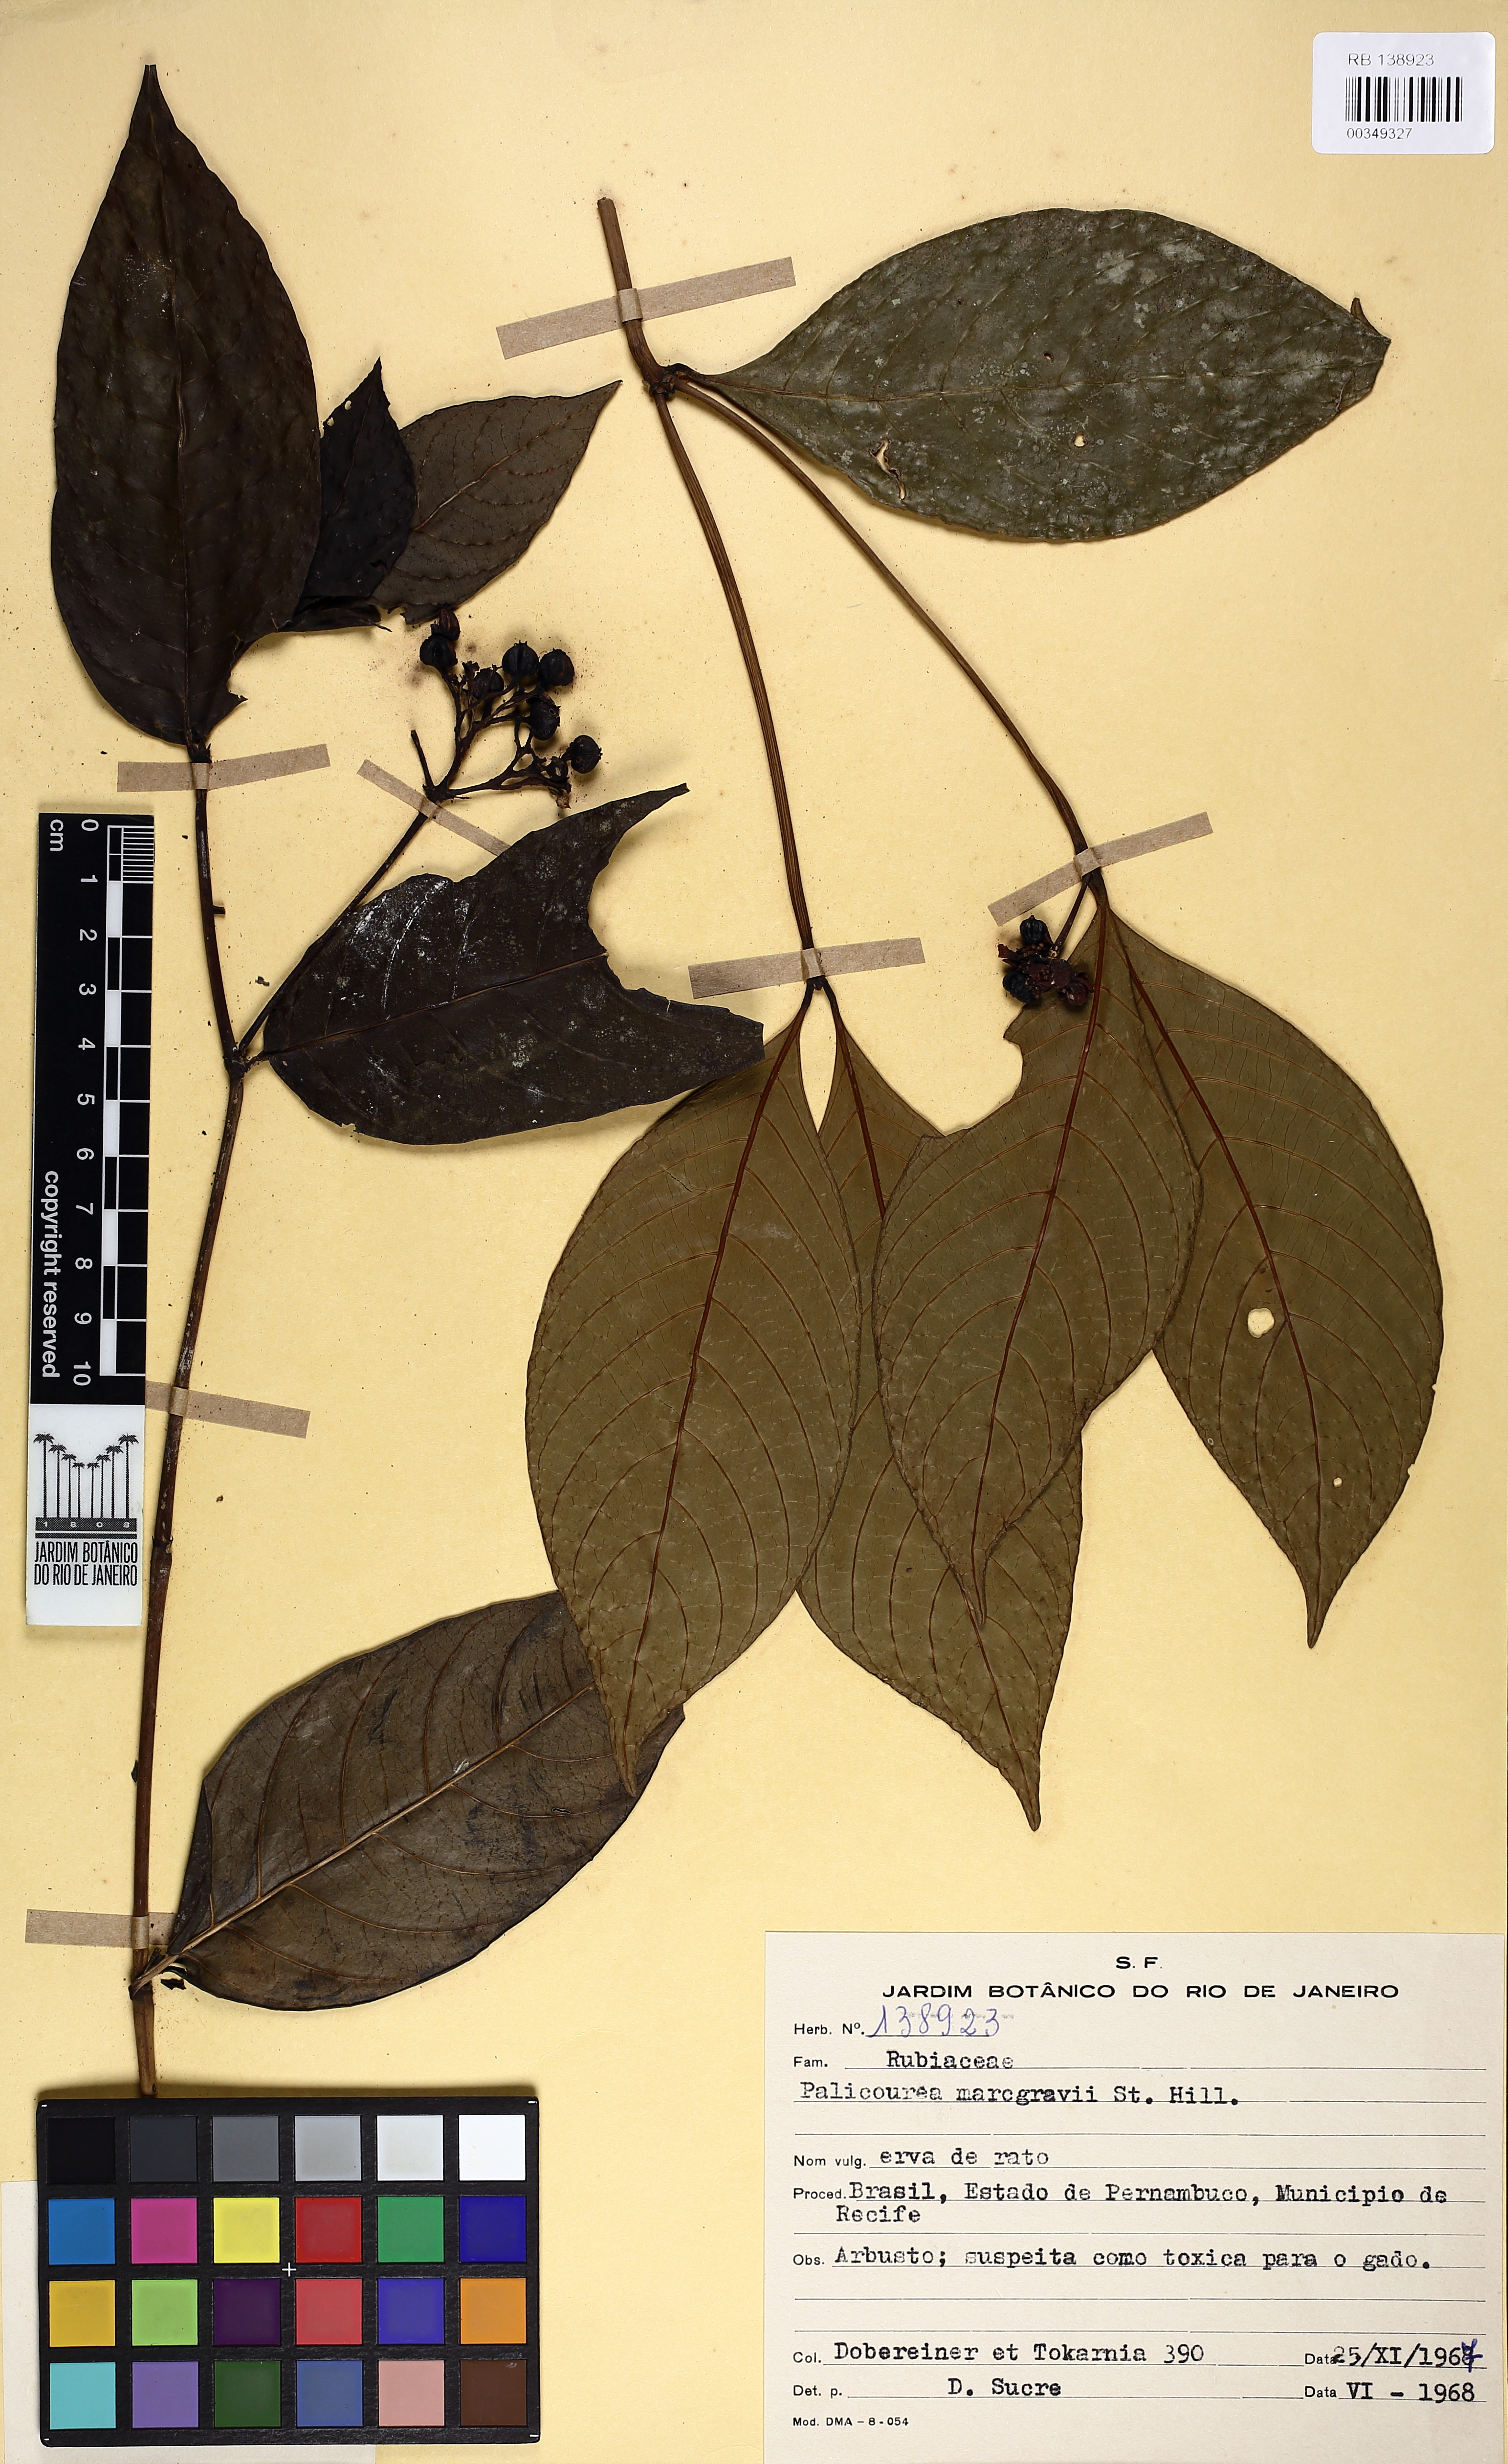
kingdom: Plantae
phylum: Tracheophyta
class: Magnoliopsida
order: Gentianales
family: Rubiaceae
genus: Palicourea
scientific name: Palicourea marcgravii
